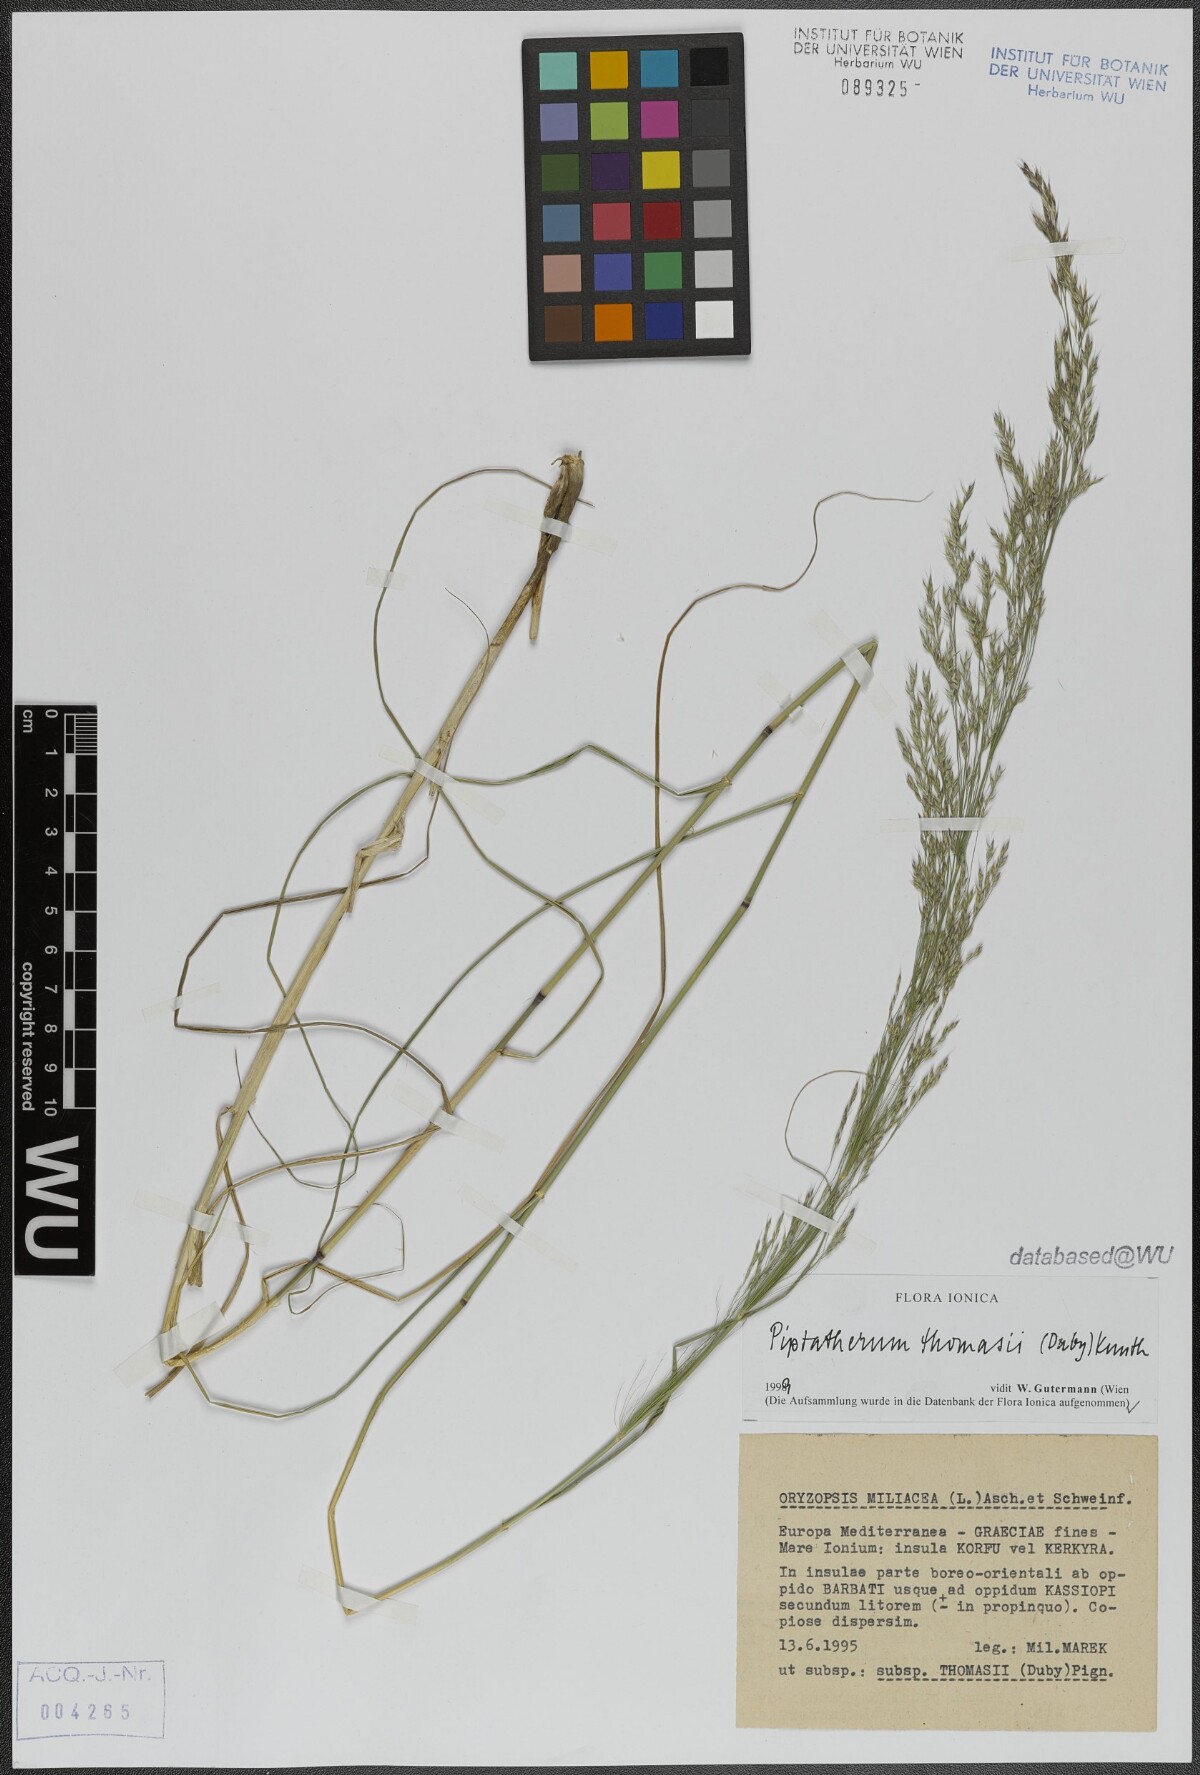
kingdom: Plantae
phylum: Tracheophyta
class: Liliopsida
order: Poales
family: Poaceae
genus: Oloptum
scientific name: Oloptum thomasii
